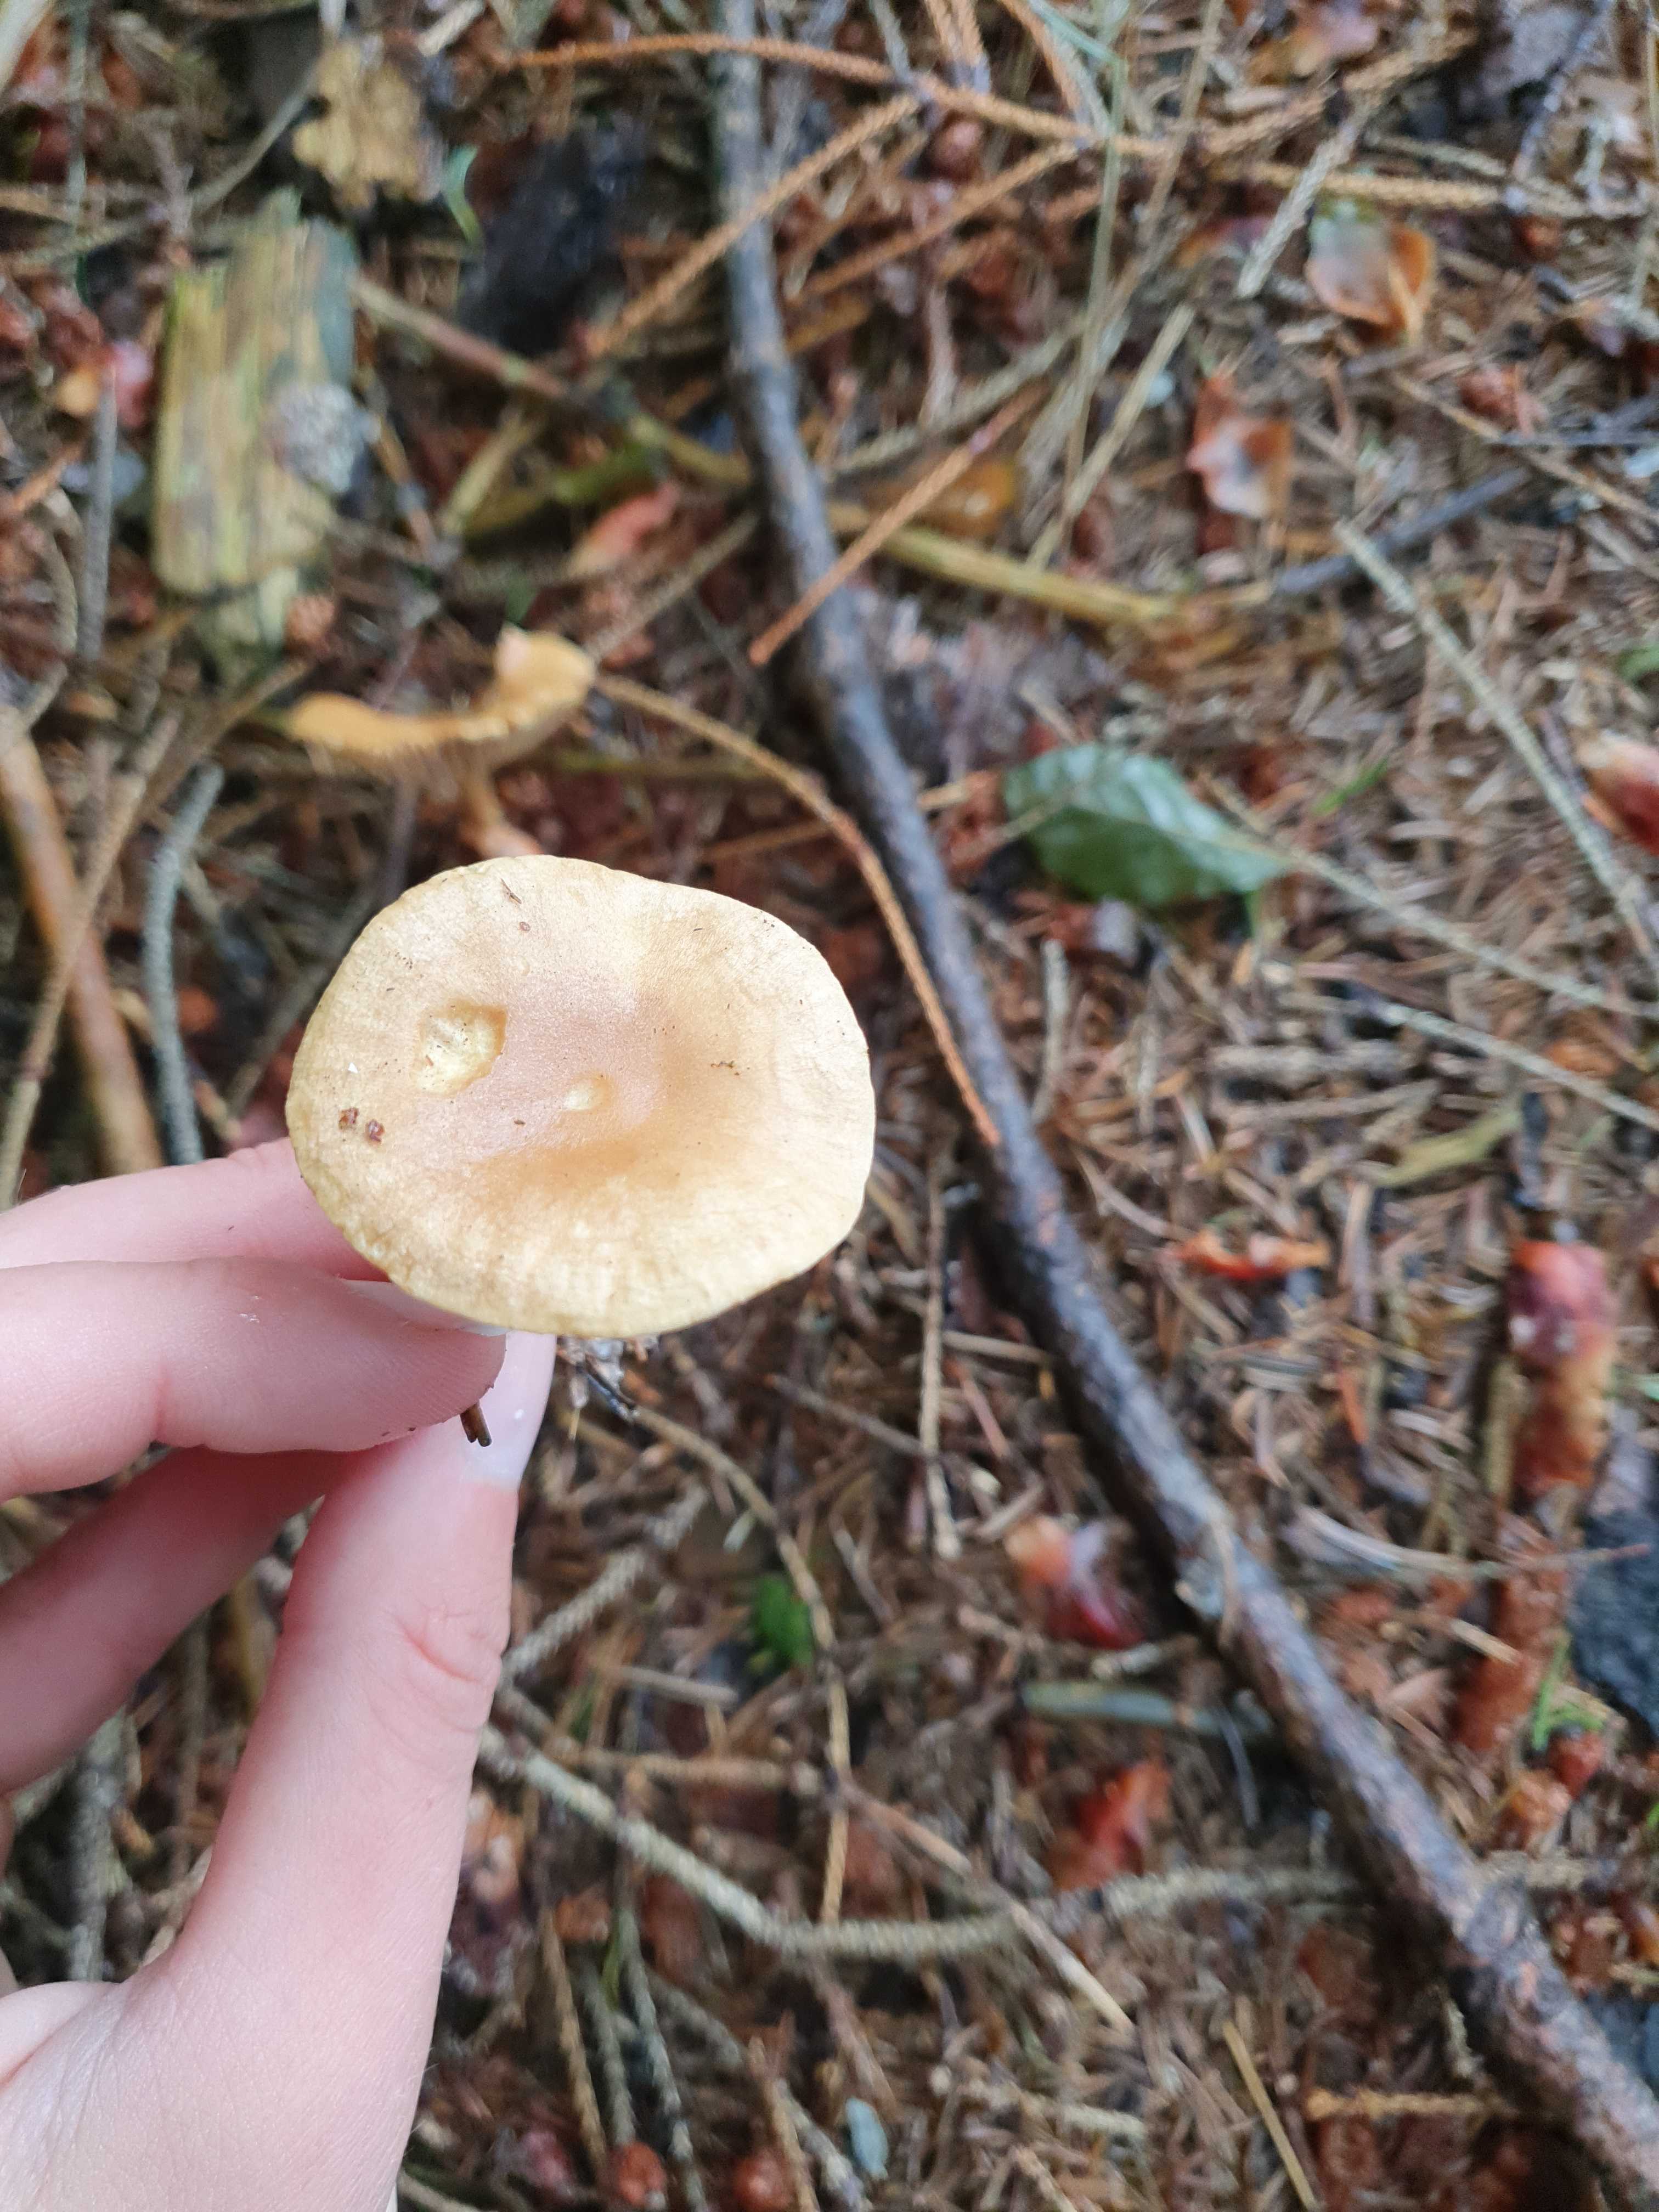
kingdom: Fungi
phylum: Basidiomycota
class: Agaricomycetes
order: Agaricales
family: Omphalotaceae
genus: Collybiopsis
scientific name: Collybiopsis peronata
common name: bestøvlet fladhat
